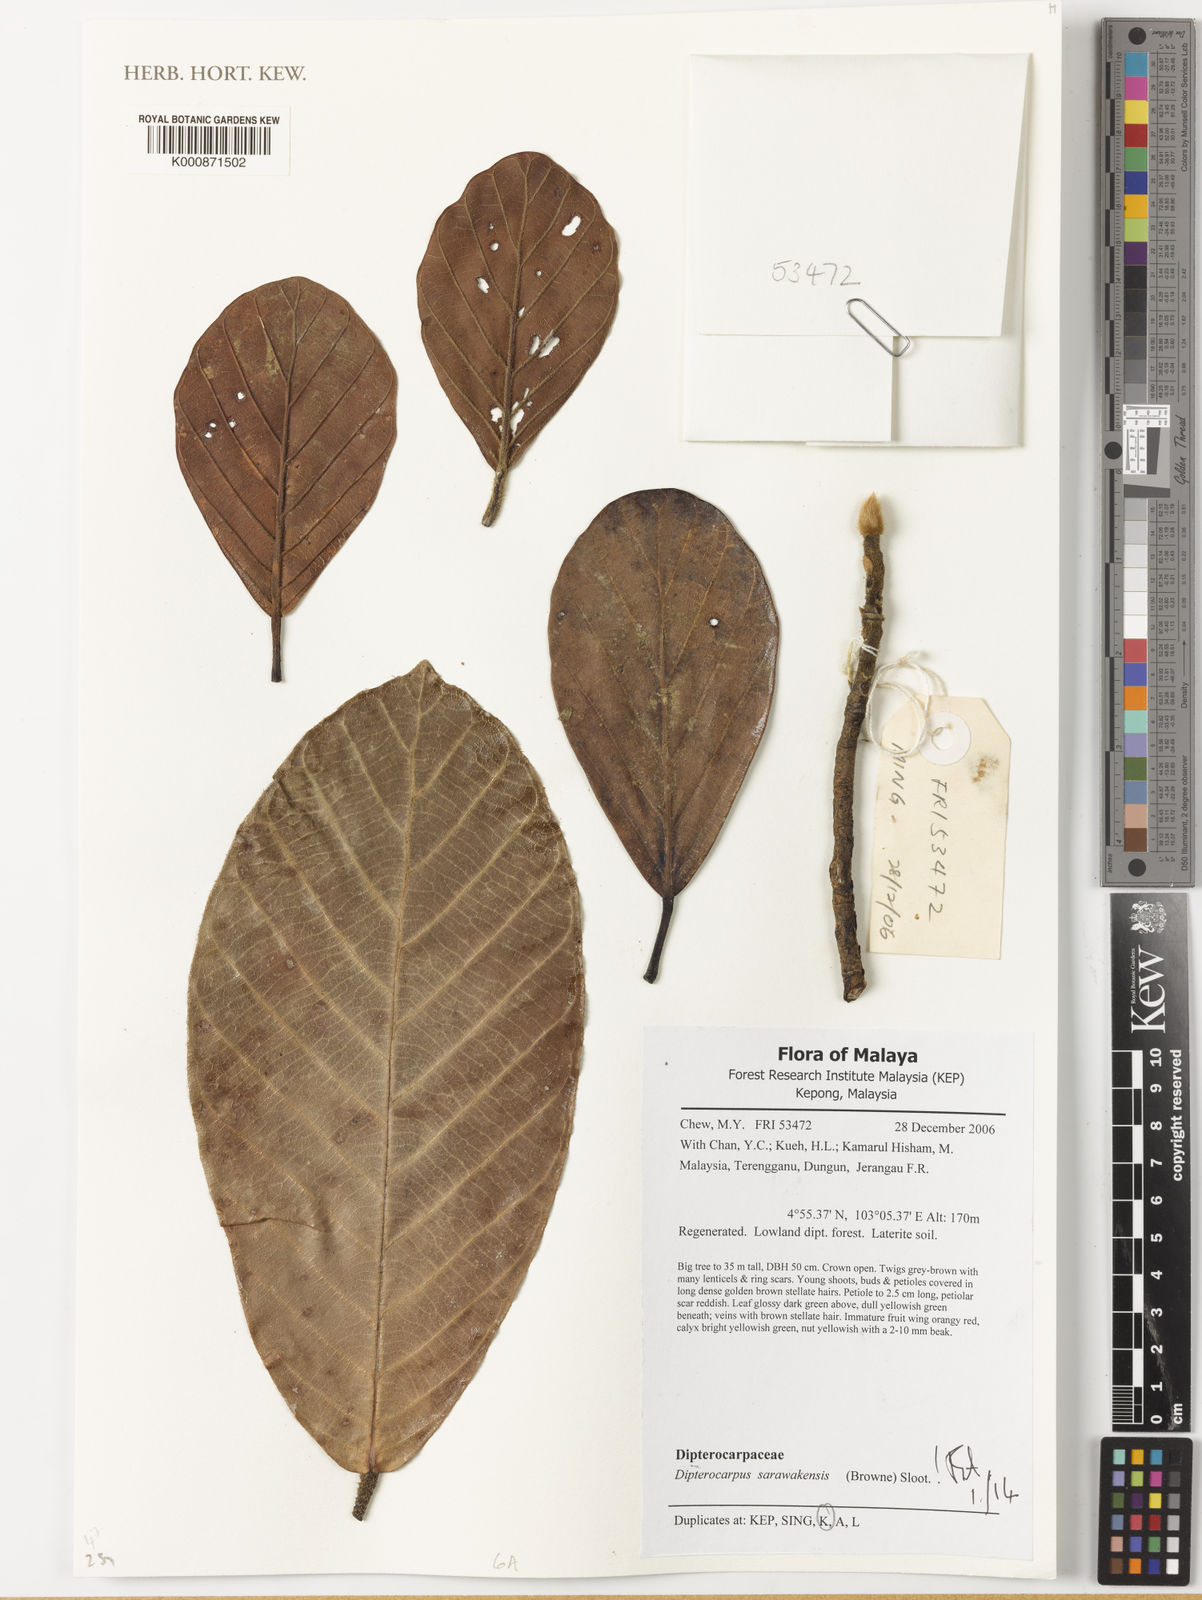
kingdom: Plantae
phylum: Tracheophyta
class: Magnoliopsida
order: Malvales
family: Dipterocarpaceae
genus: Dipterocarpus
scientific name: Dipterocarpus sarawakensis
